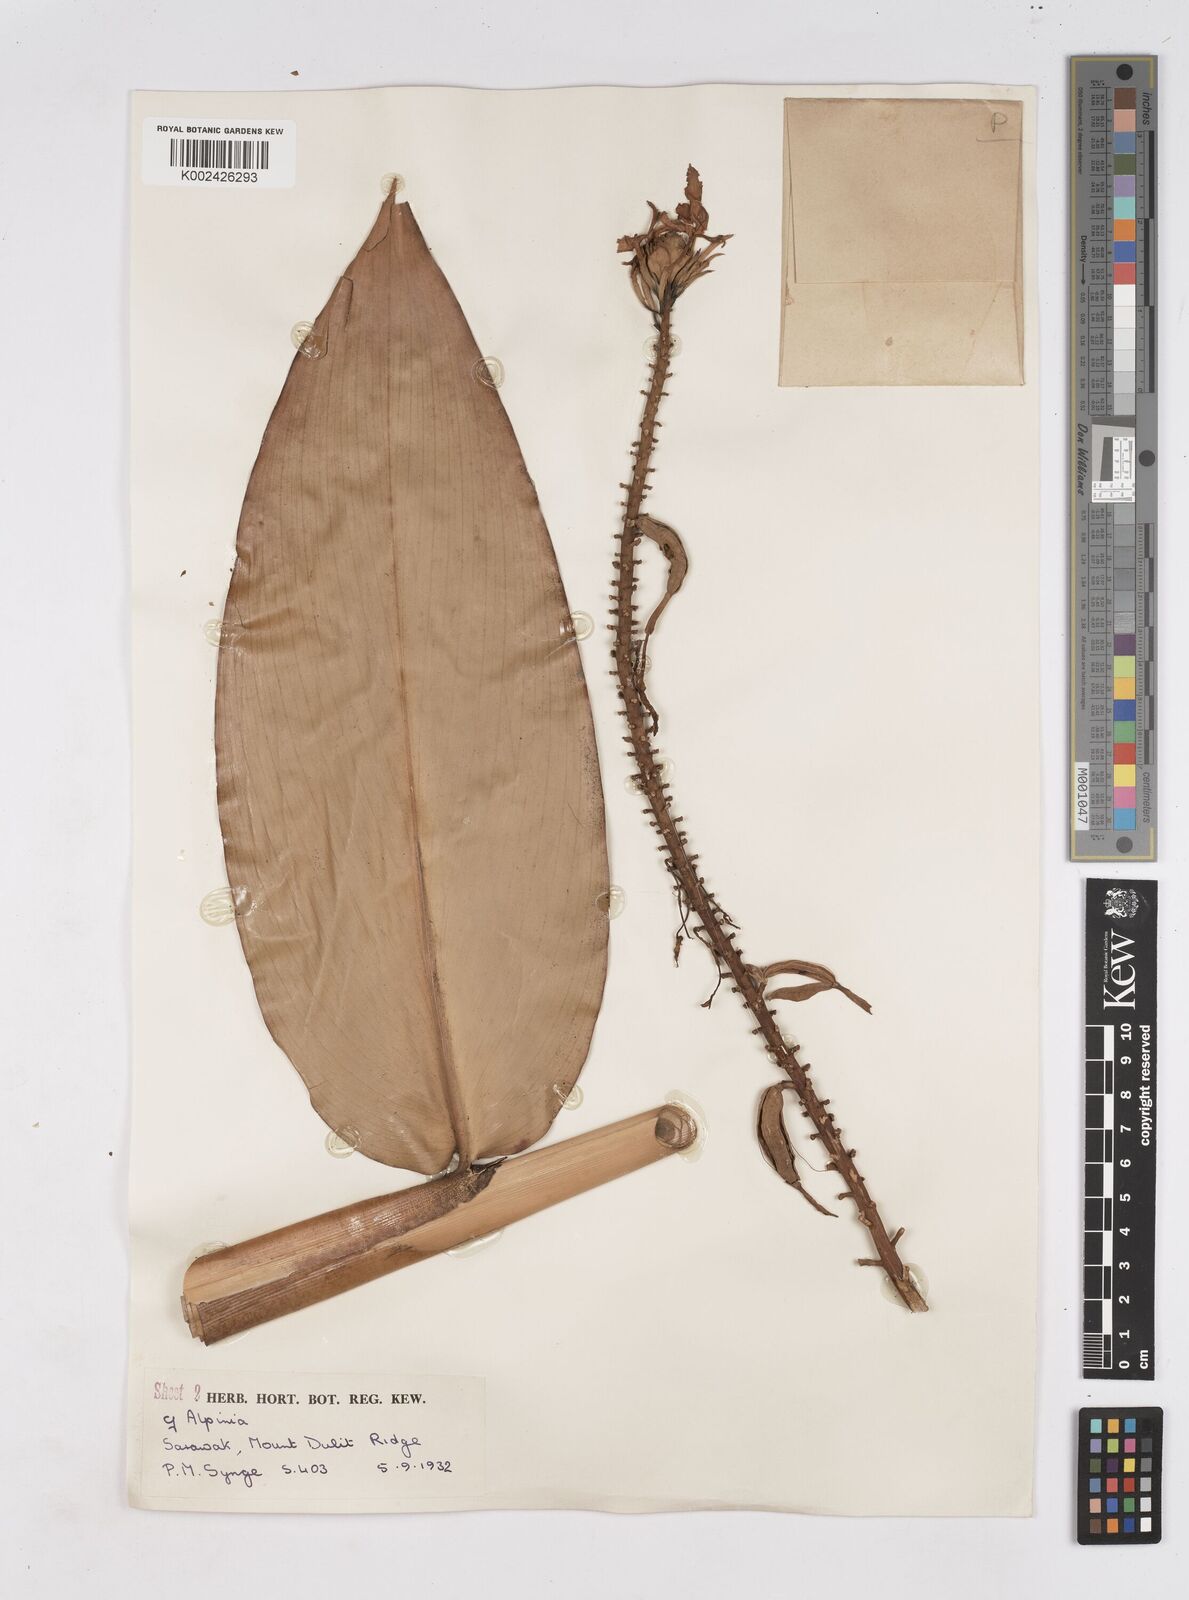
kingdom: Plantae
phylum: Tracheophyta
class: Liliopsida
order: Zingiberales
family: Zingiberaceae
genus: Burbidgea
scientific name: Burbidgea longiflora
